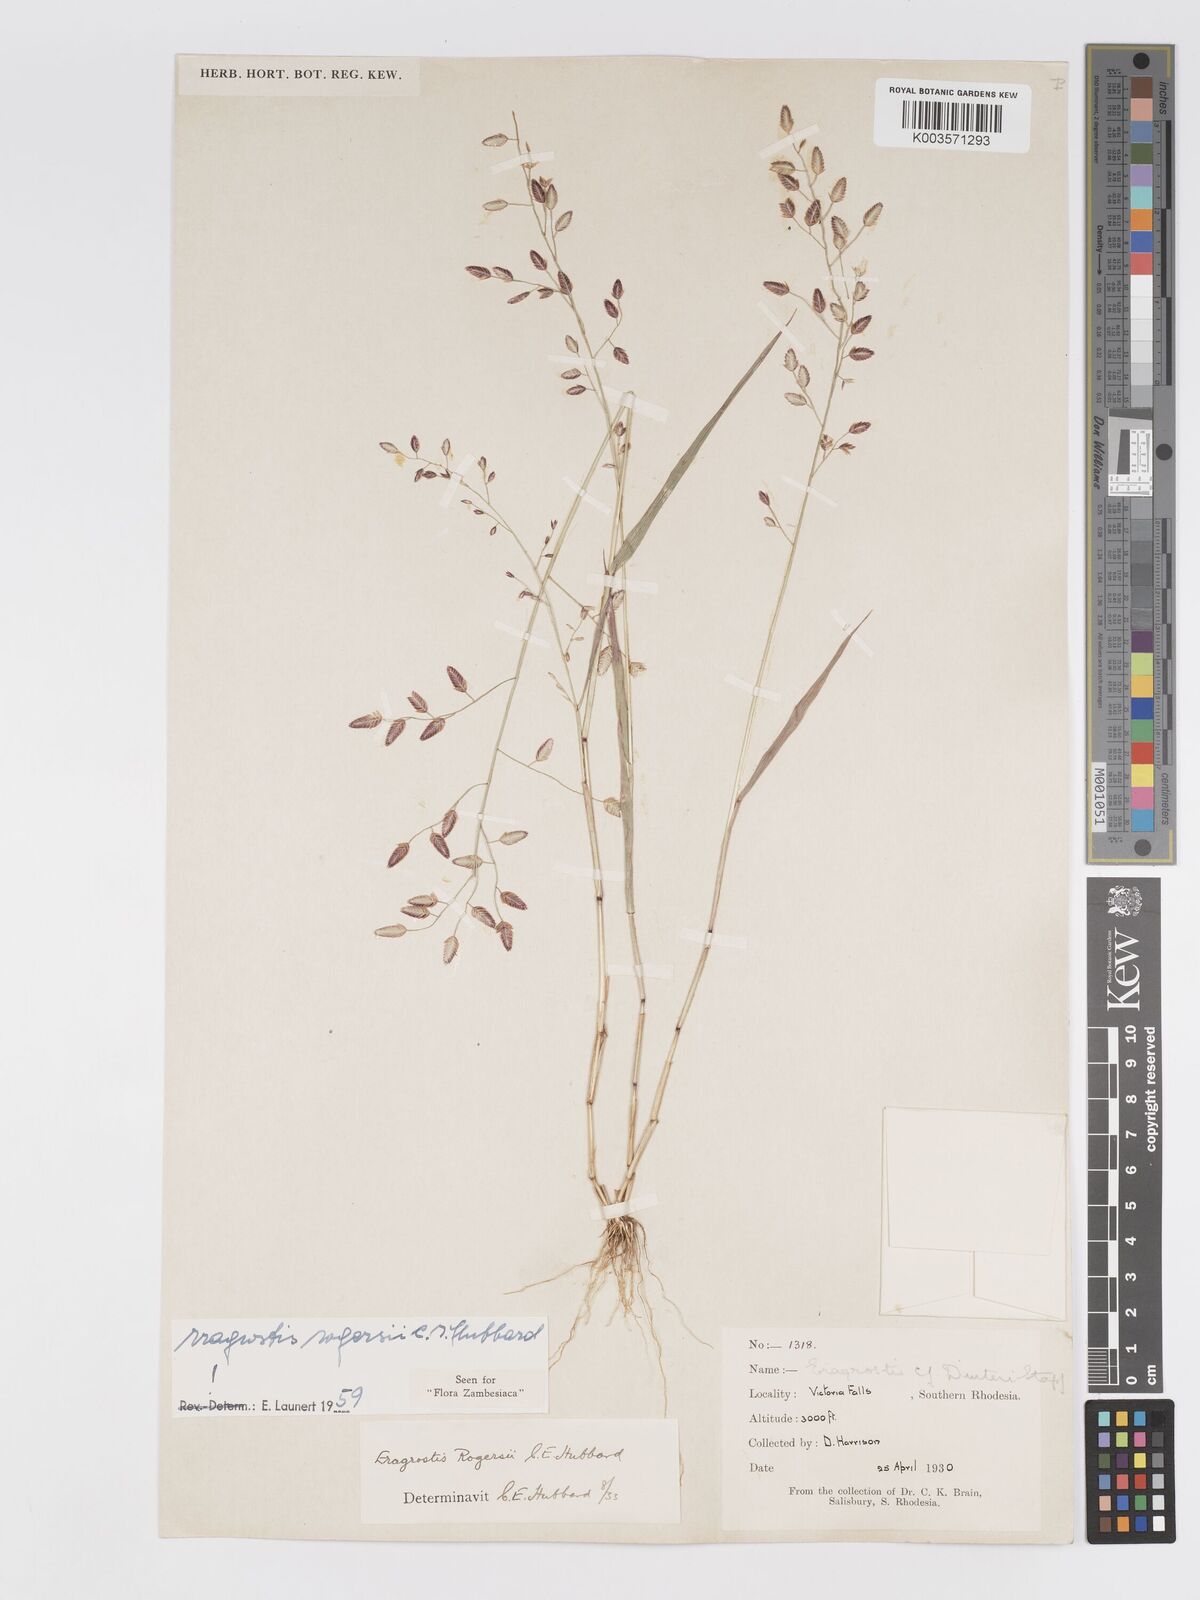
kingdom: Plantae
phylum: Tracheophyta
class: Liliopsida
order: Poales
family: Poaceae
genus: Eragrostis
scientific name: Eragrostis rogersii
